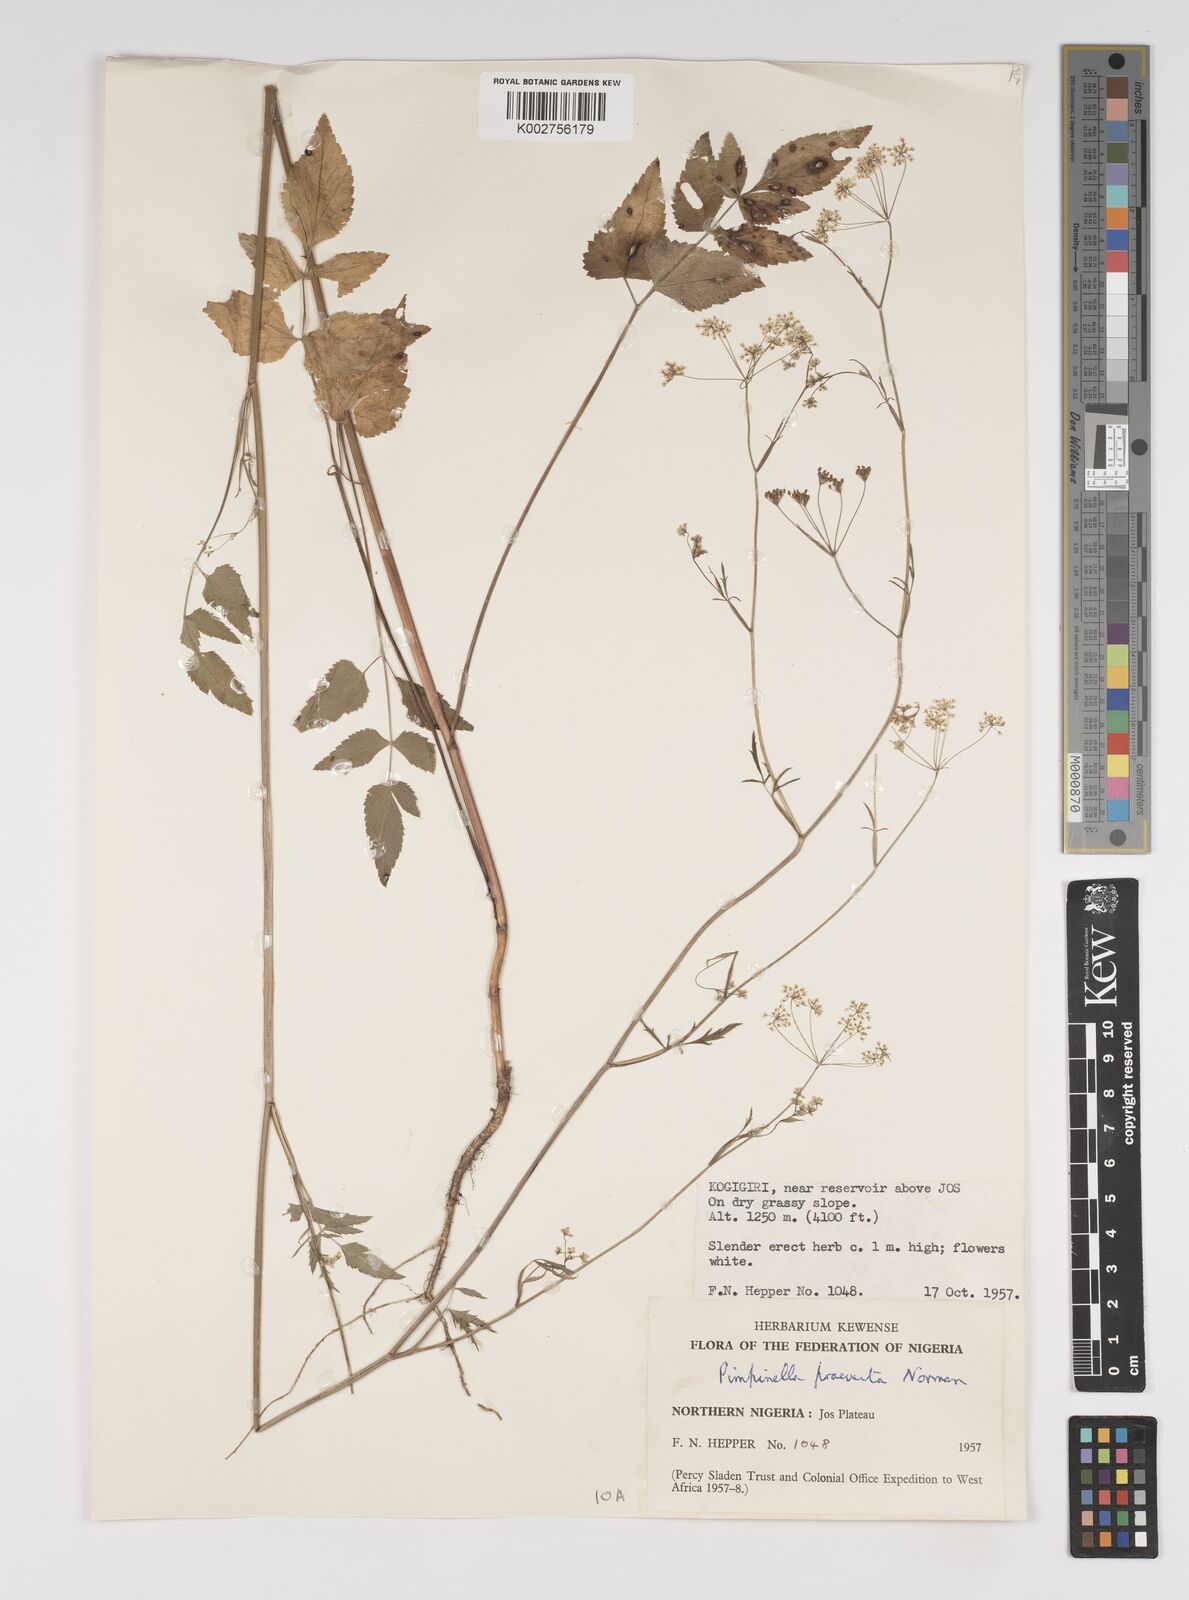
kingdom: Plantae
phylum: Tracheophyta
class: Magnoliopsida
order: Apiales
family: Apiaceae
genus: Pimpinella
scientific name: Pimpinella hirtella
